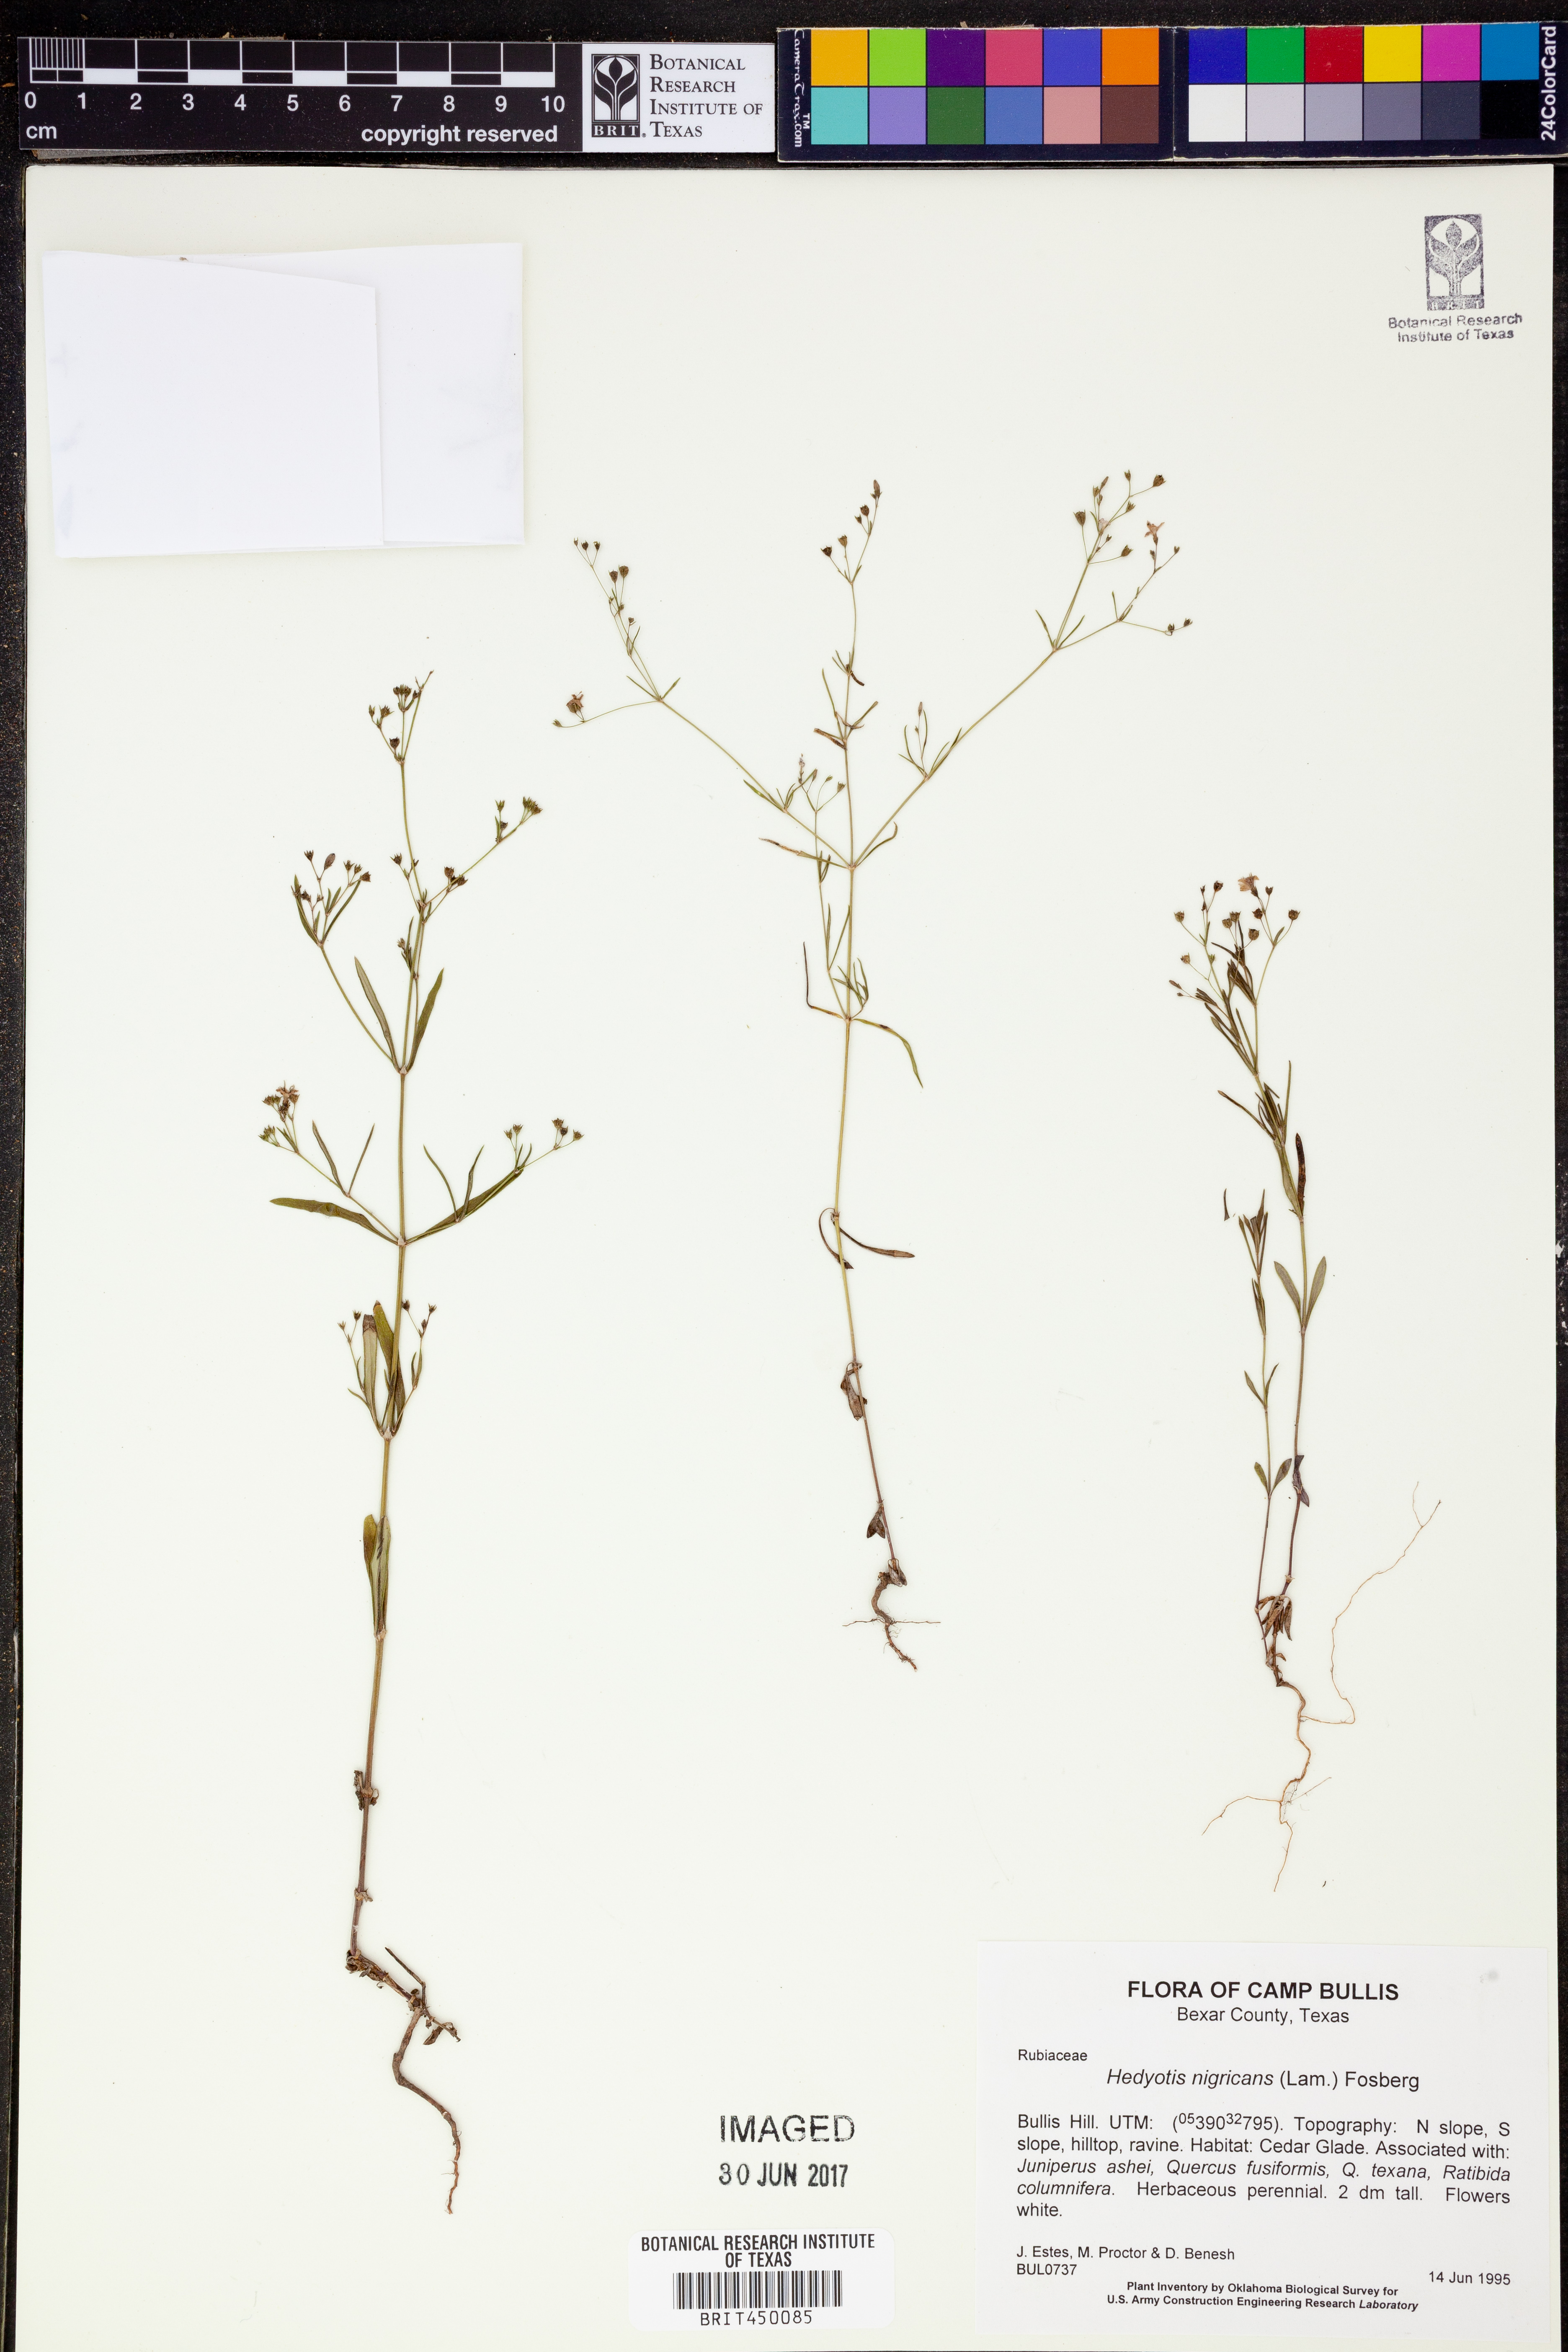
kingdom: Plantae
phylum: Tracheophyta
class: Magnoliopsida
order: Gentianales
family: Rubiaceae
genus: Stenaria
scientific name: Stenaria nigricans
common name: Diamondflowers
